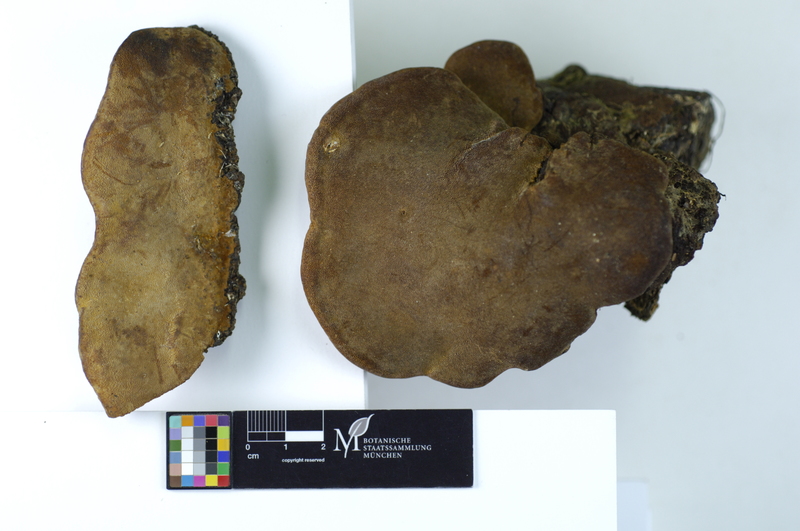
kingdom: Plantae
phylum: Tracheophyta
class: Magnoliopsida
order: Fagales
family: Betulaceae
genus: Betula
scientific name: Betula
